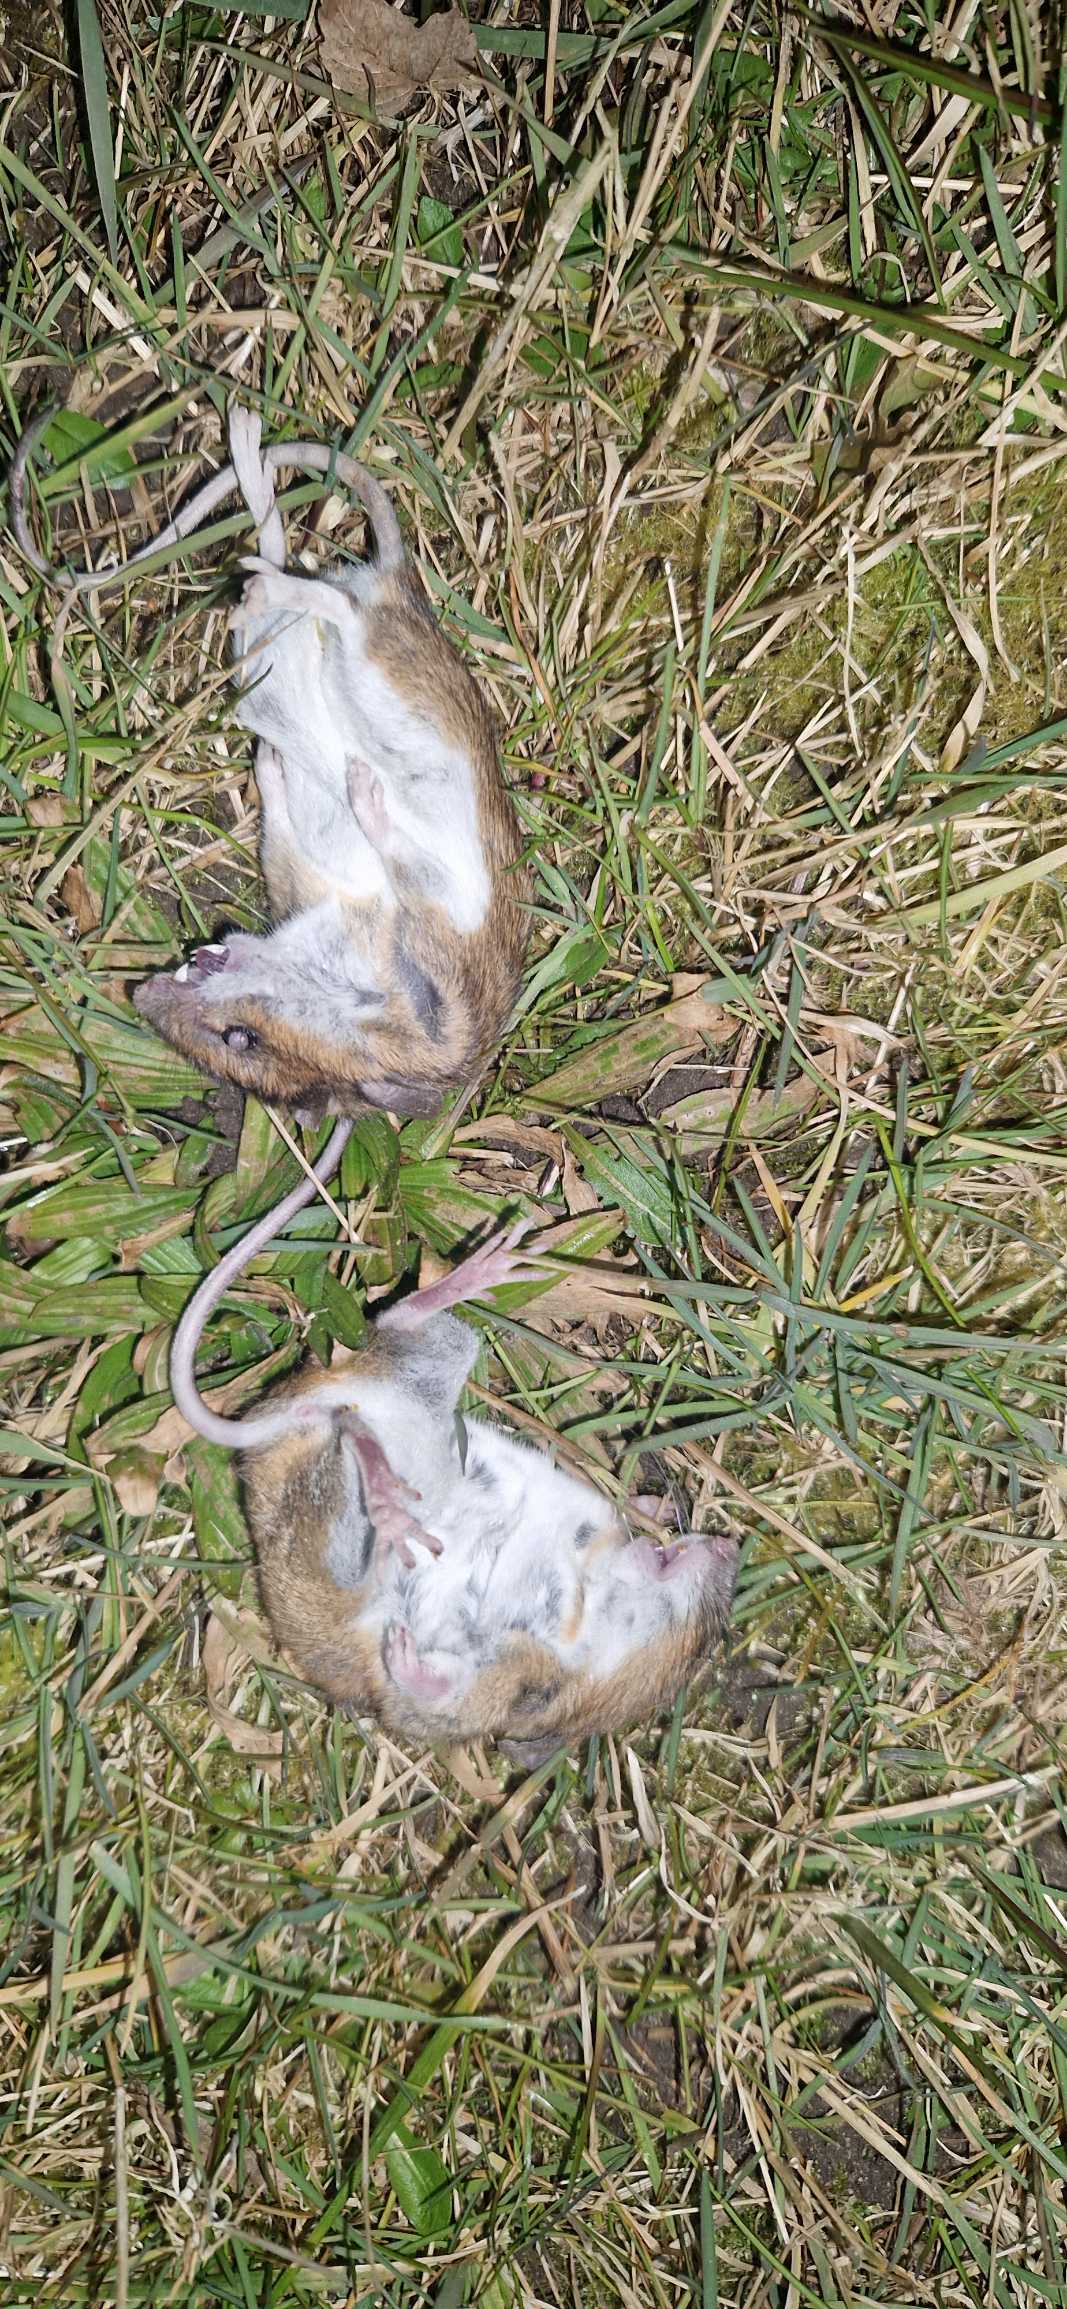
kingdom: Animalia
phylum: Chordata
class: Mammalia
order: Rodentia
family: Muridae
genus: Apodemus
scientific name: Apodemus flavicollis
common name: Halsbåndmus
